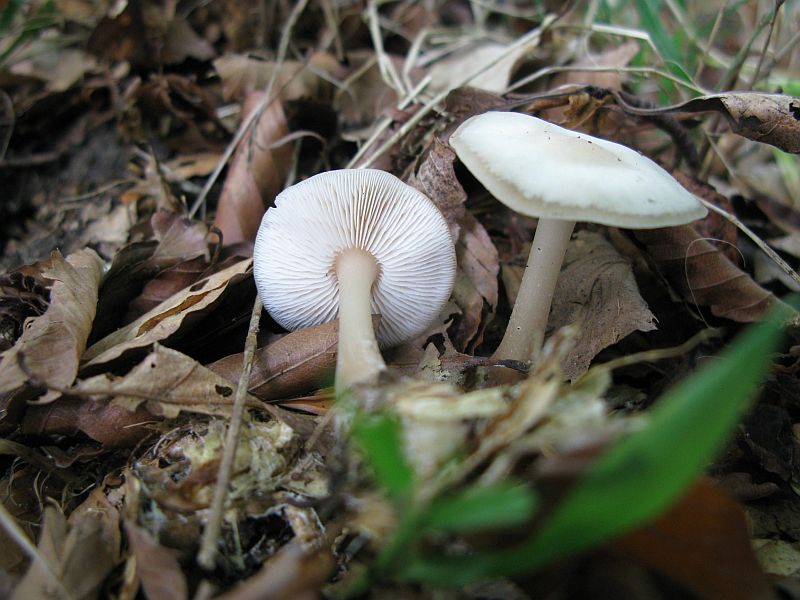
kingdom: Fungi
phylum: Basidiomycota
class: Agaricomycetes
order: Agaricales
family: Omphalotaceae
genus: Rhodocollybia
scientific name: Rhodocollybia asema
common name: horngrå fladhat
